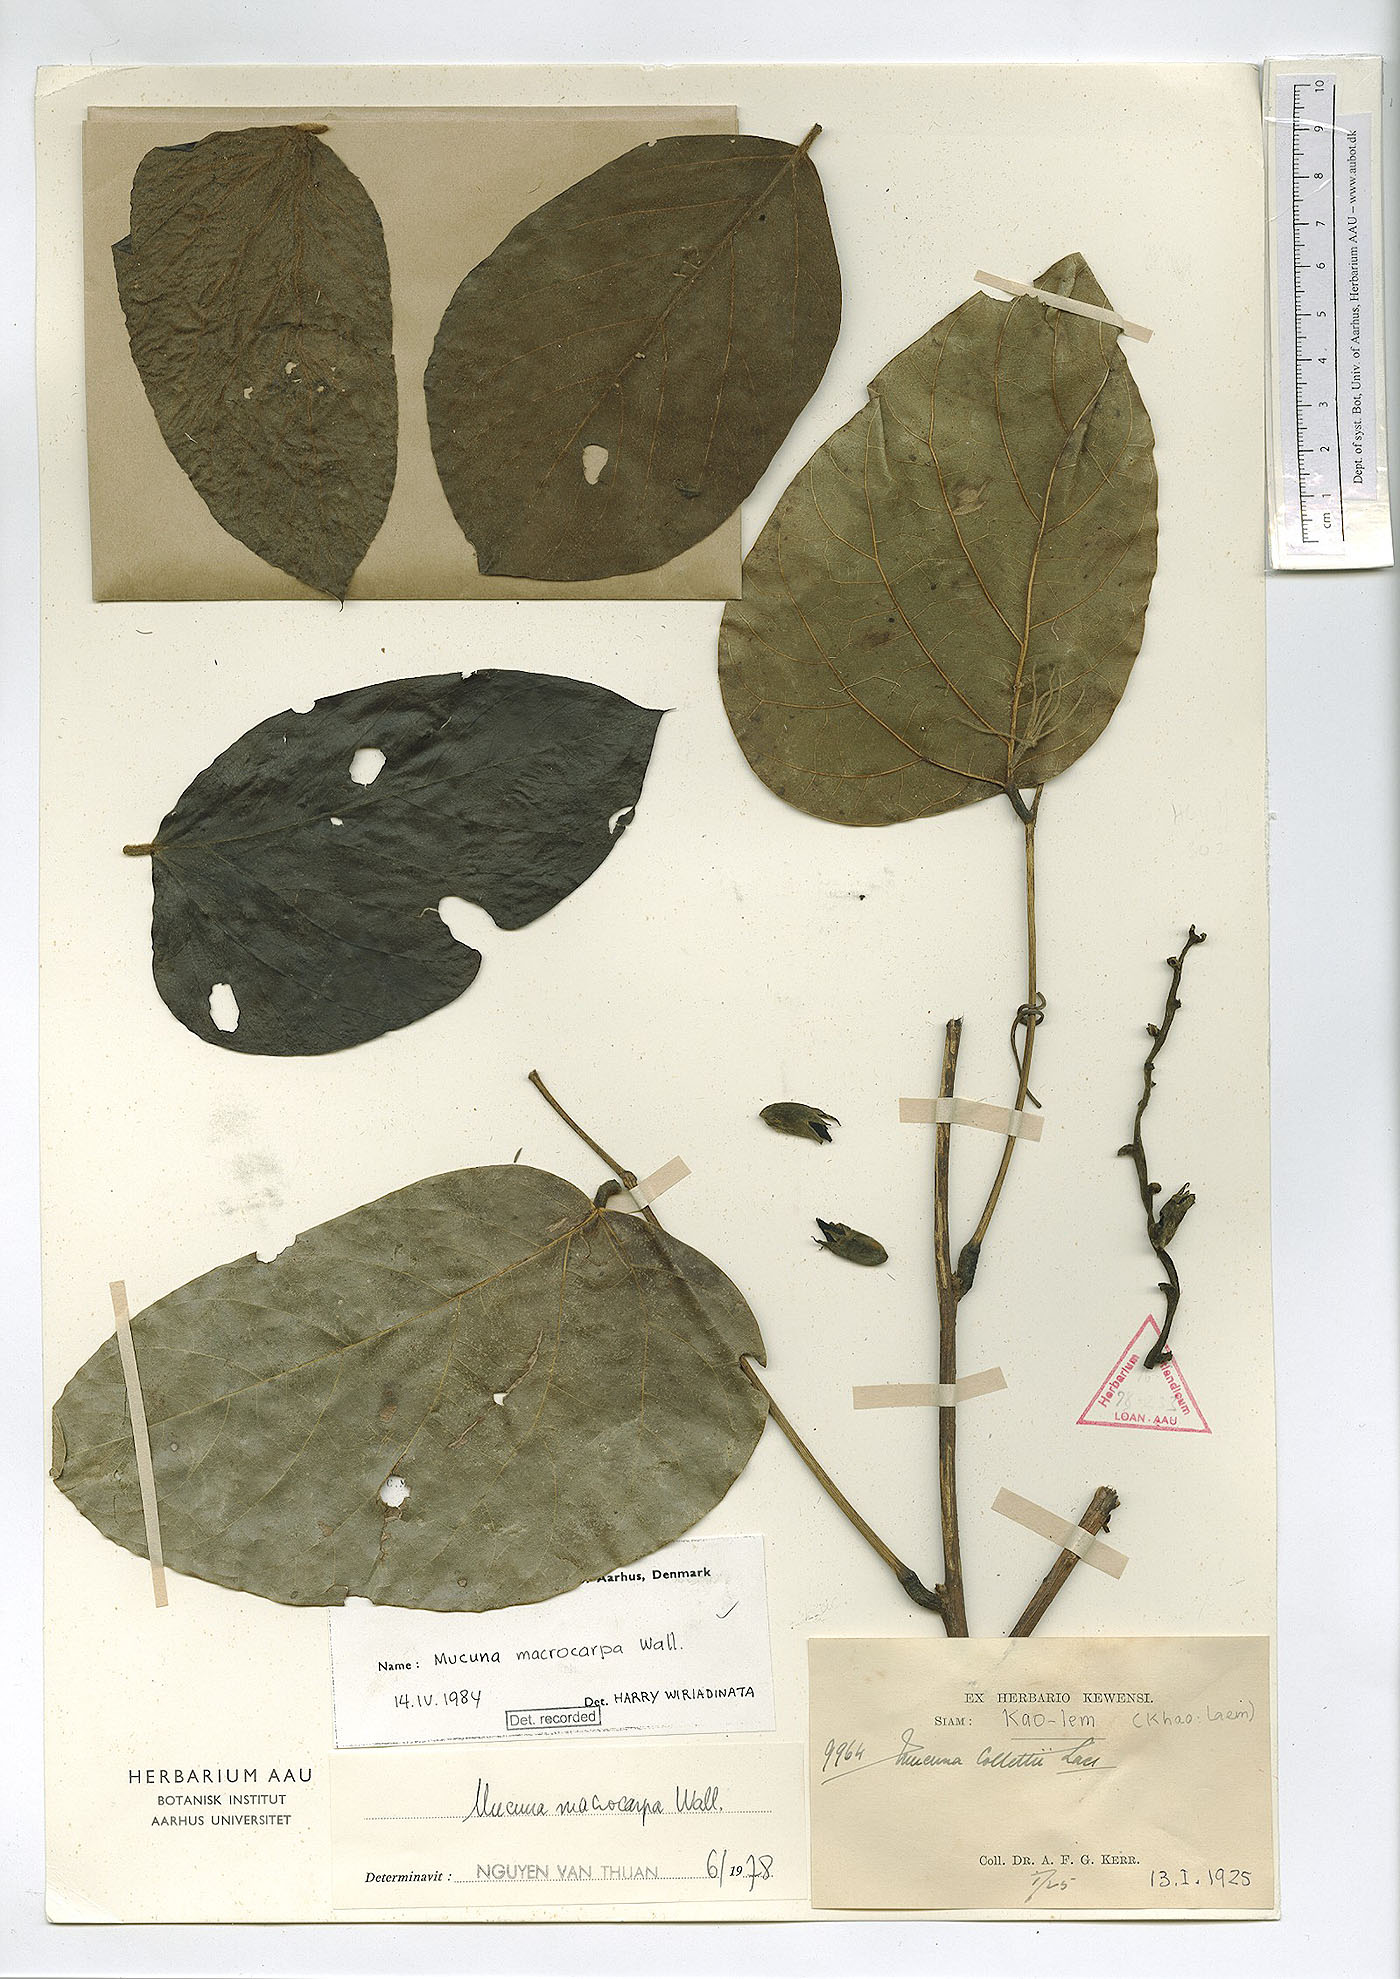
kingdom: Plantae
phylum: Tracheophyta
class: Magnoliopsida
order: Fabales
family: Fabaceae
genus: Mucuna
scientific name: Mucuna macrocarpa
